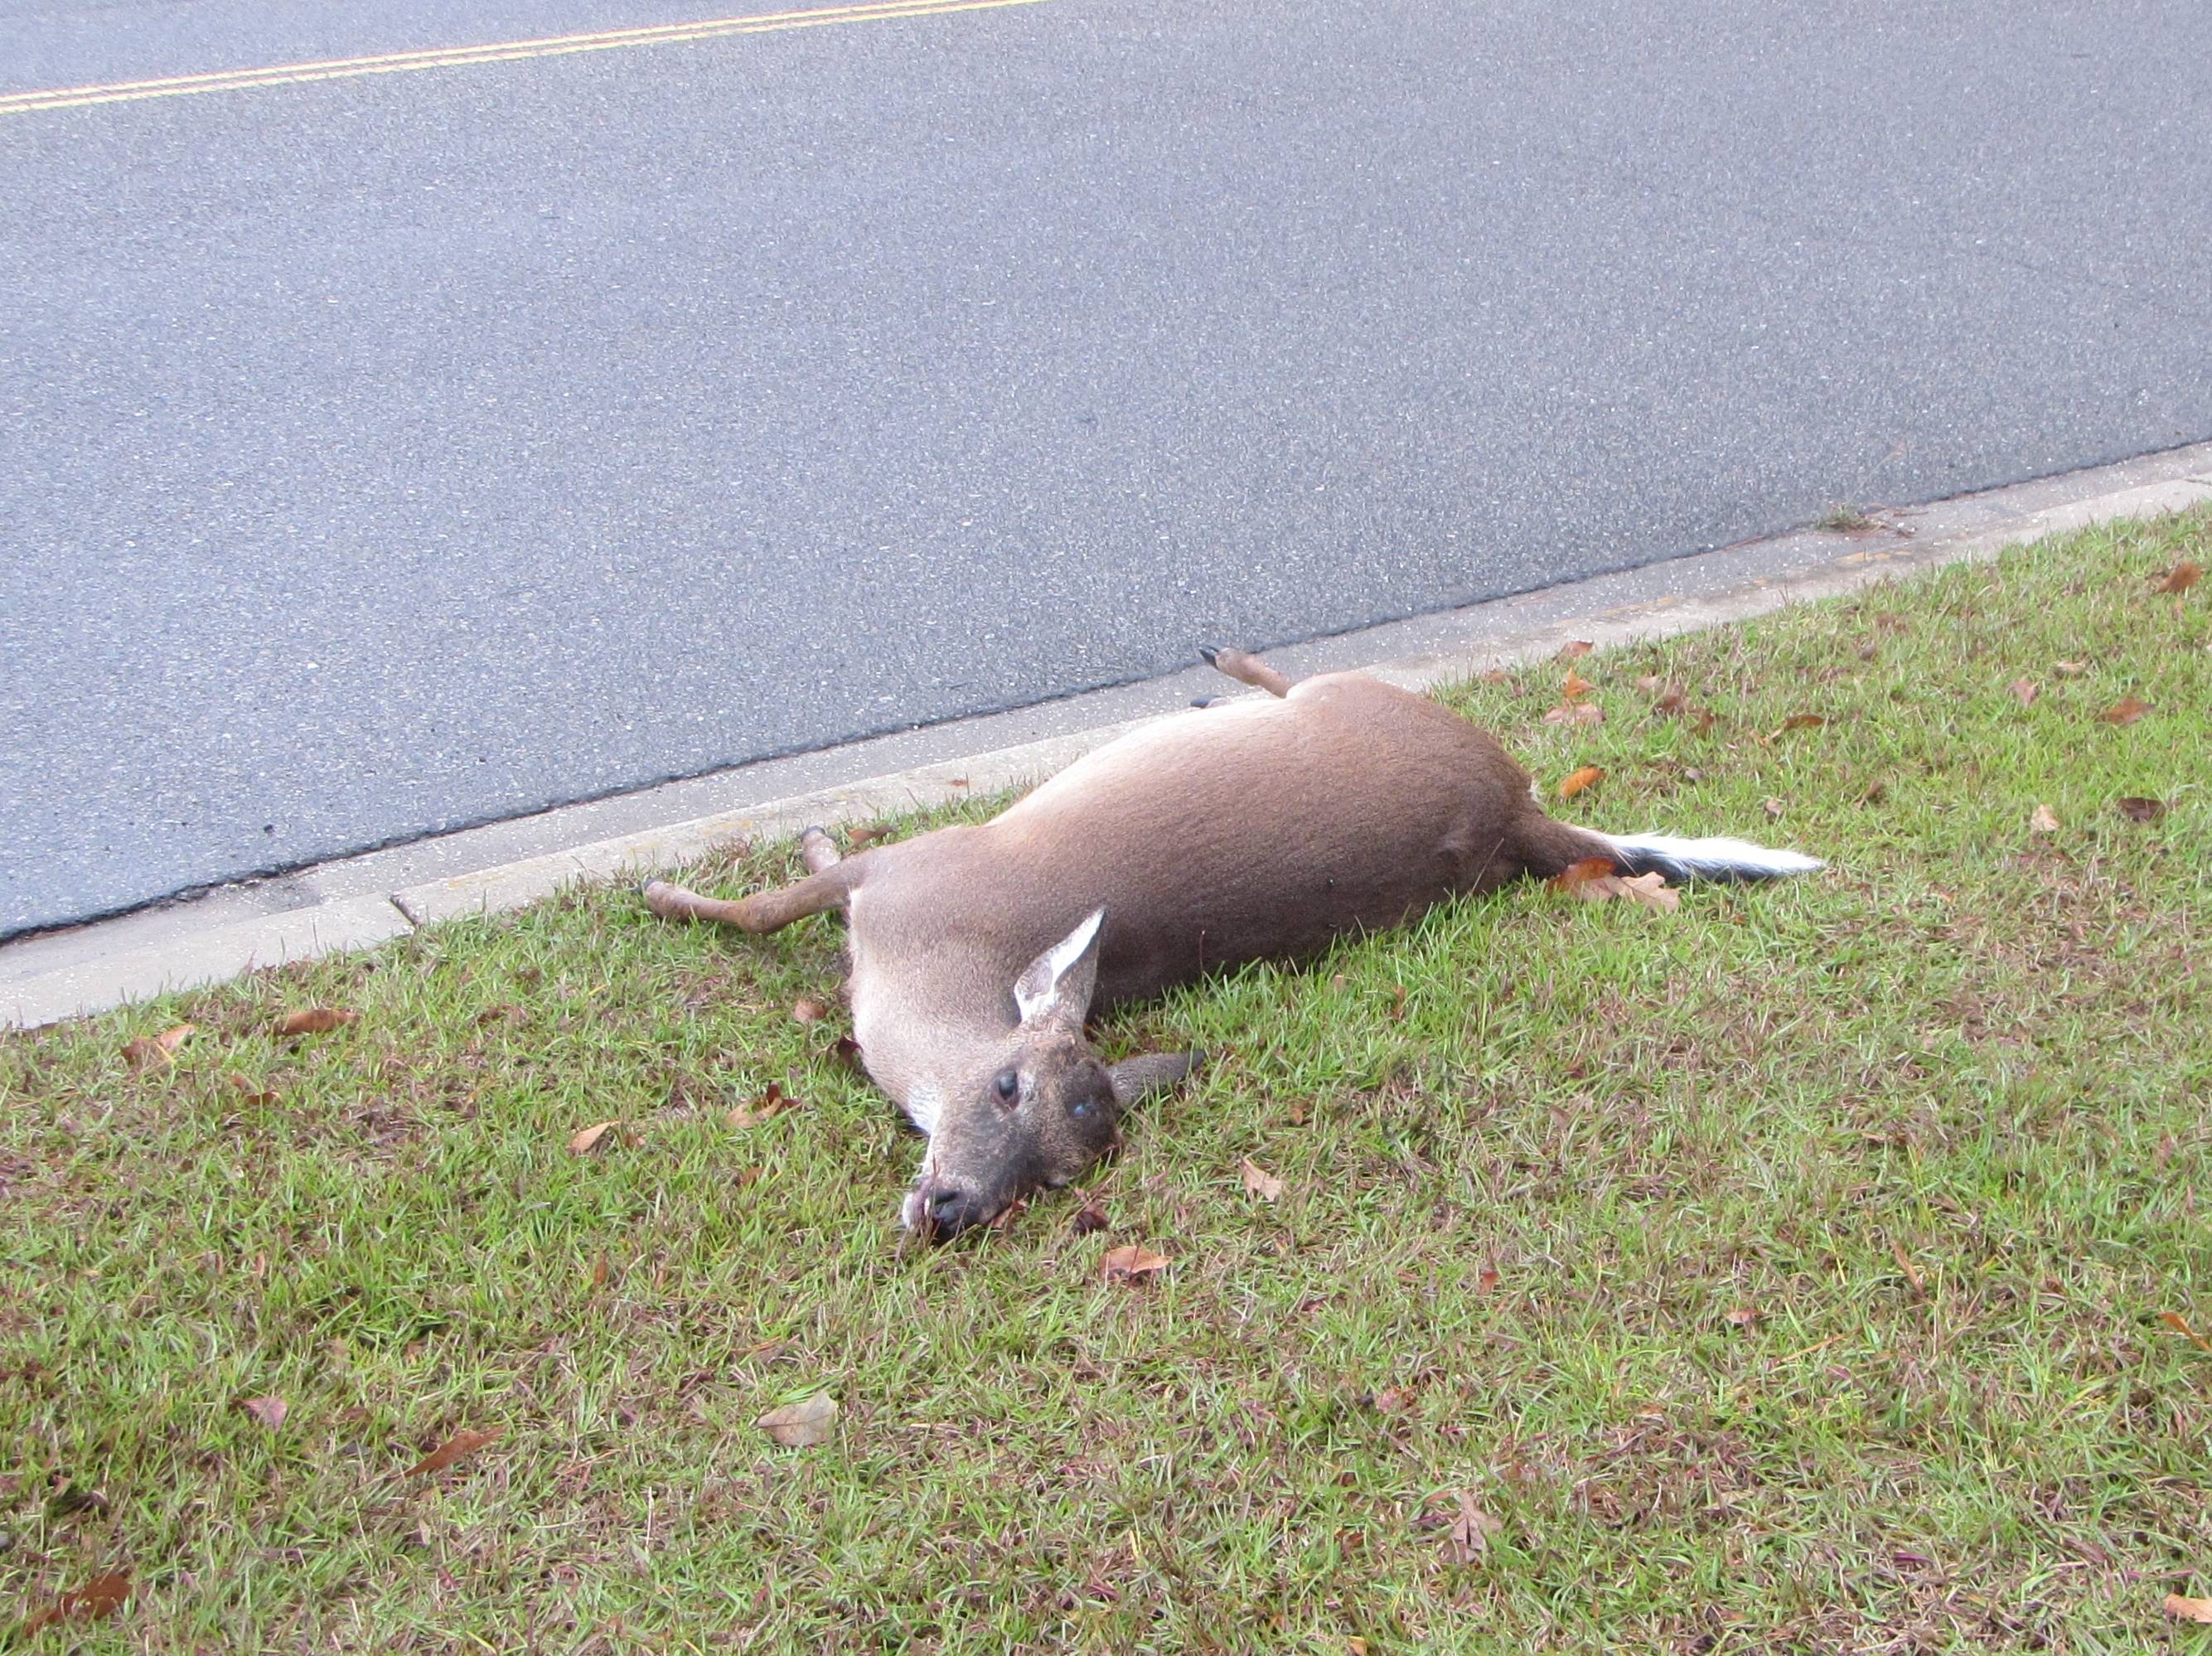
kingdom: Animalia
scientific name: Animalia
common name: NA
